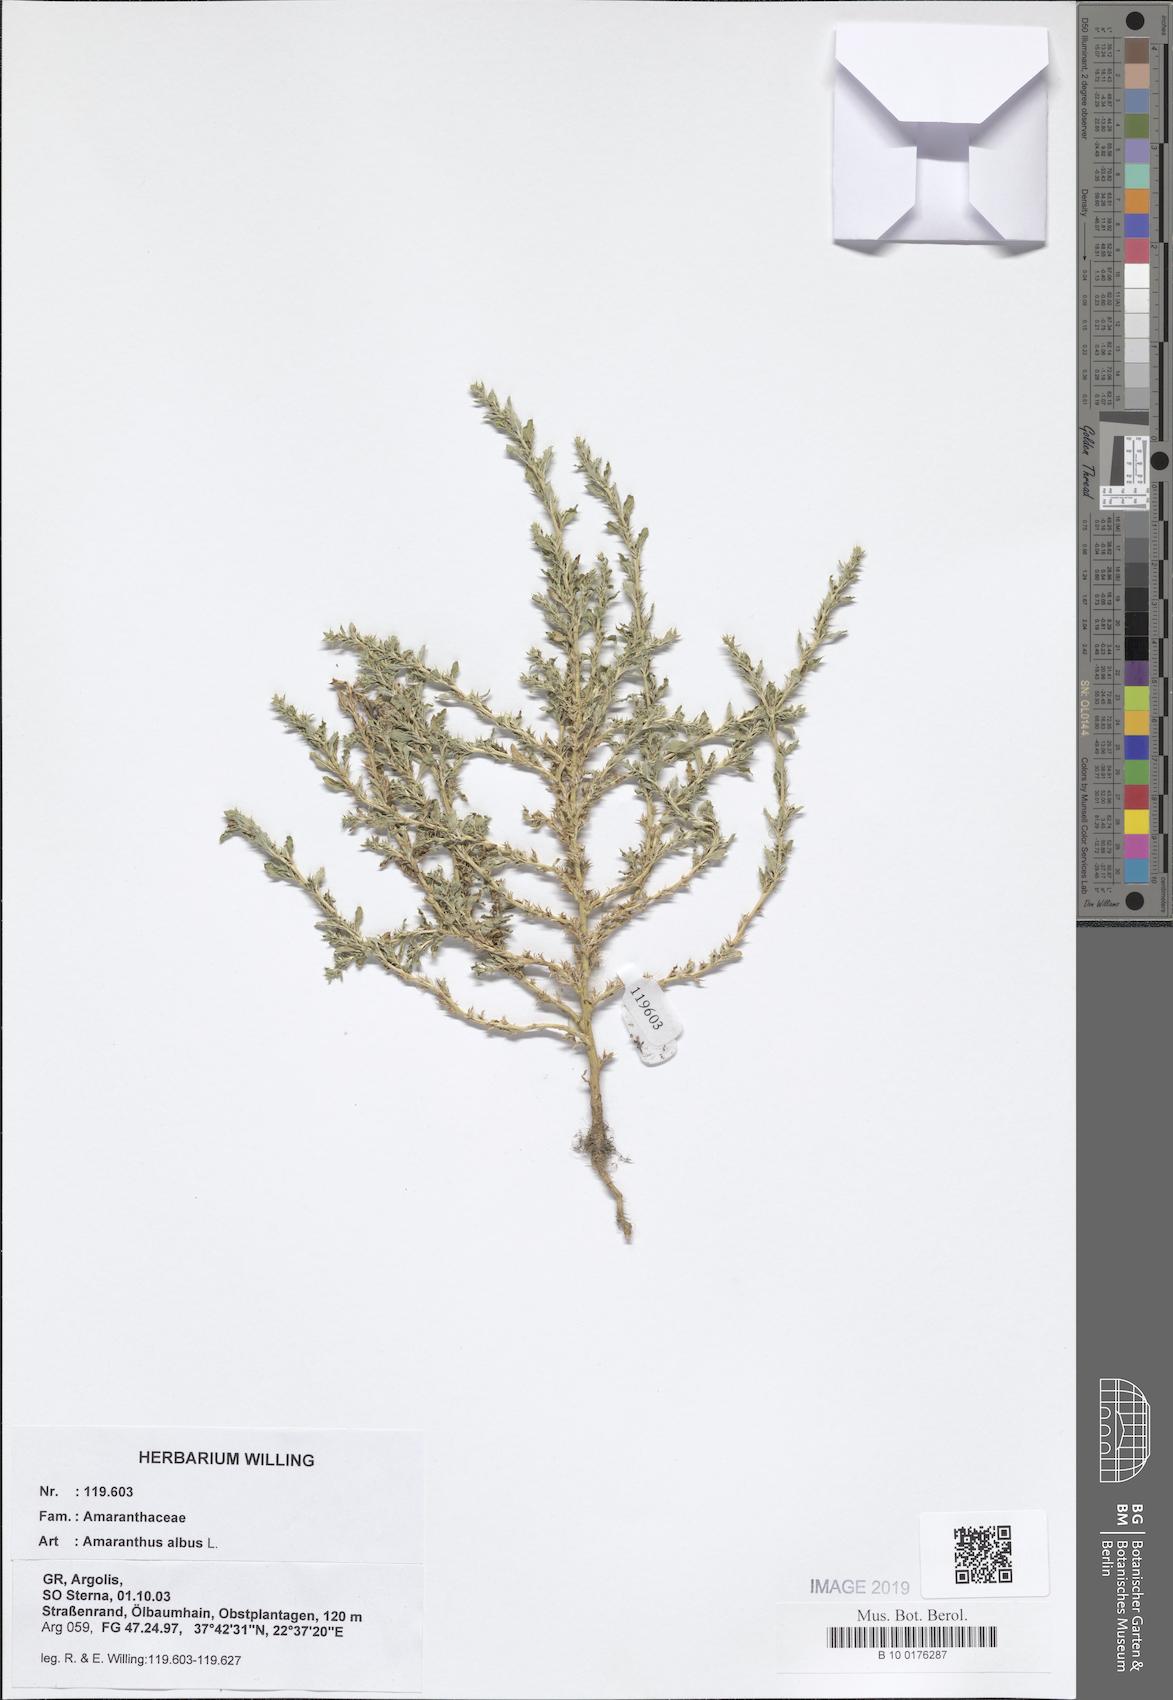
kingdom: Plantae
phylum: Tracheophyta
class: Magnoliopsida
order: Caryophyllales
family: Amaranthaceae
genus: Amaranthus
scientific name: Amaranthus albus
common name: White pigweed
